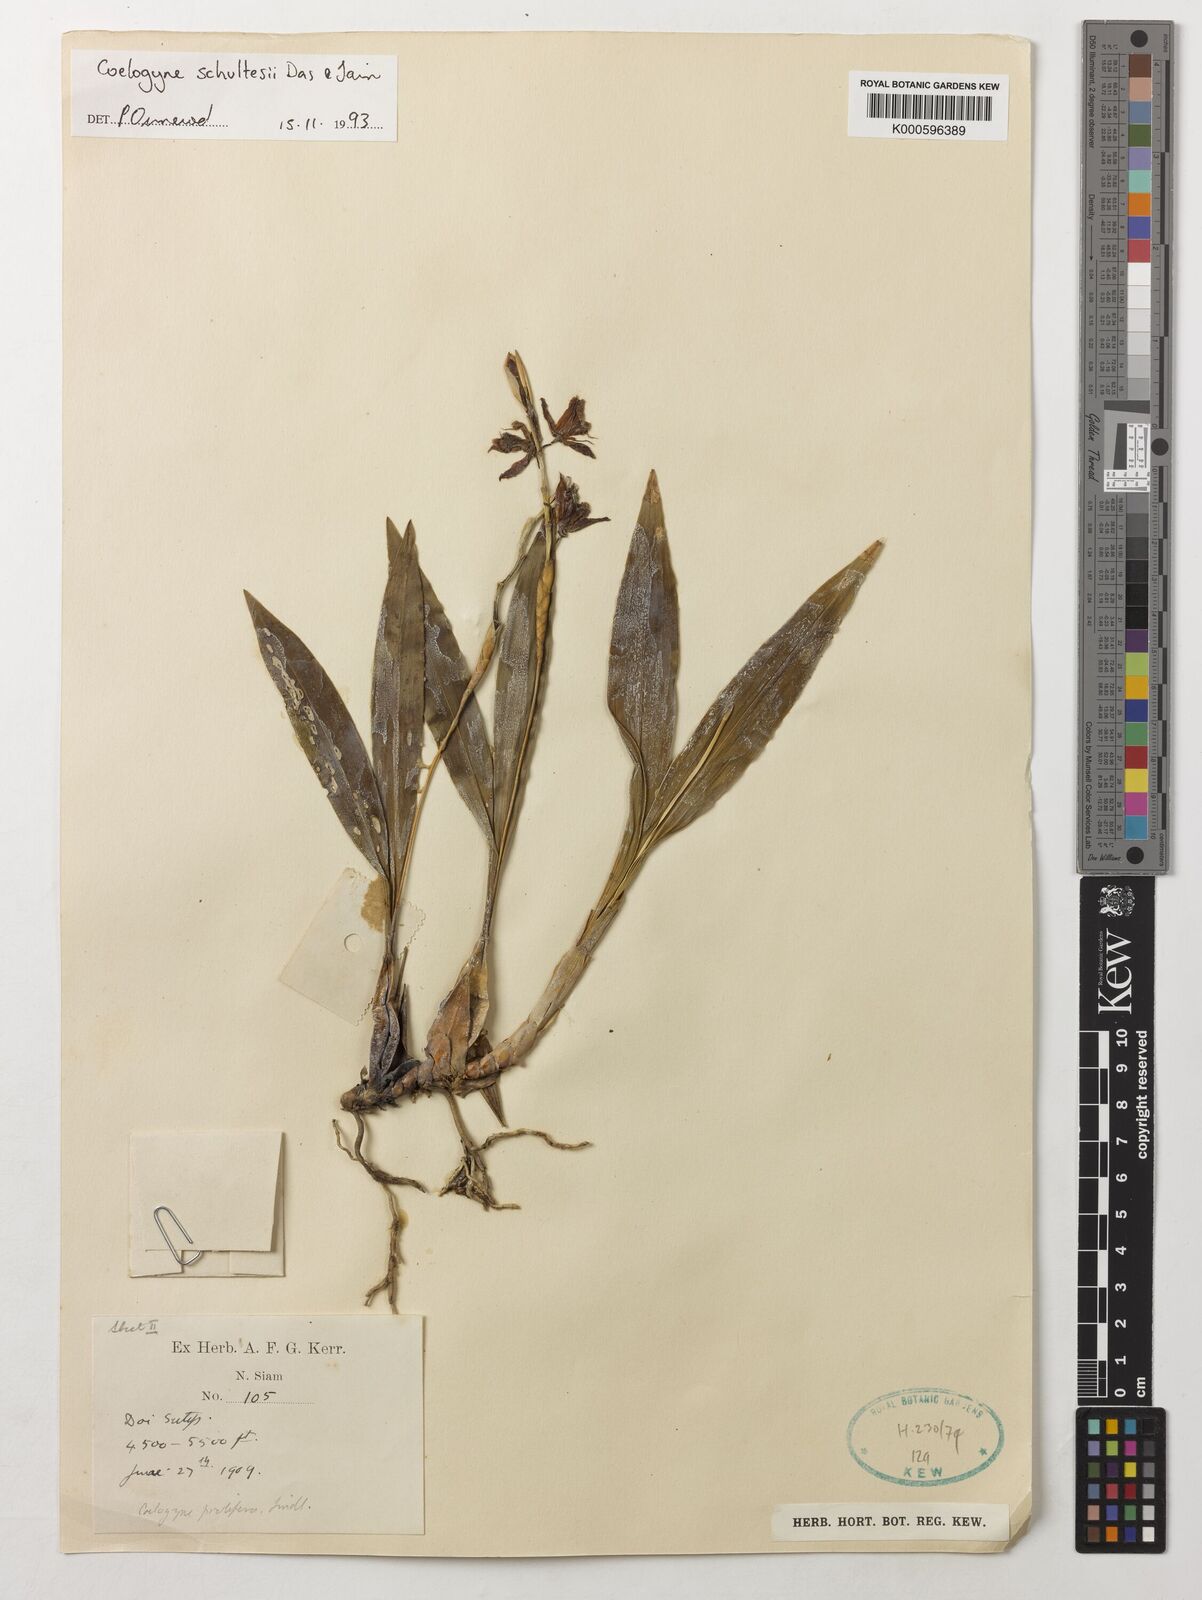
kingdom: Plantae
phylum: Tracheophyta
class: Liliopsida
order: Asparagales
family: Orchidaceae
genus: Coelogyne
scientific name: Coelogyne schultesii
